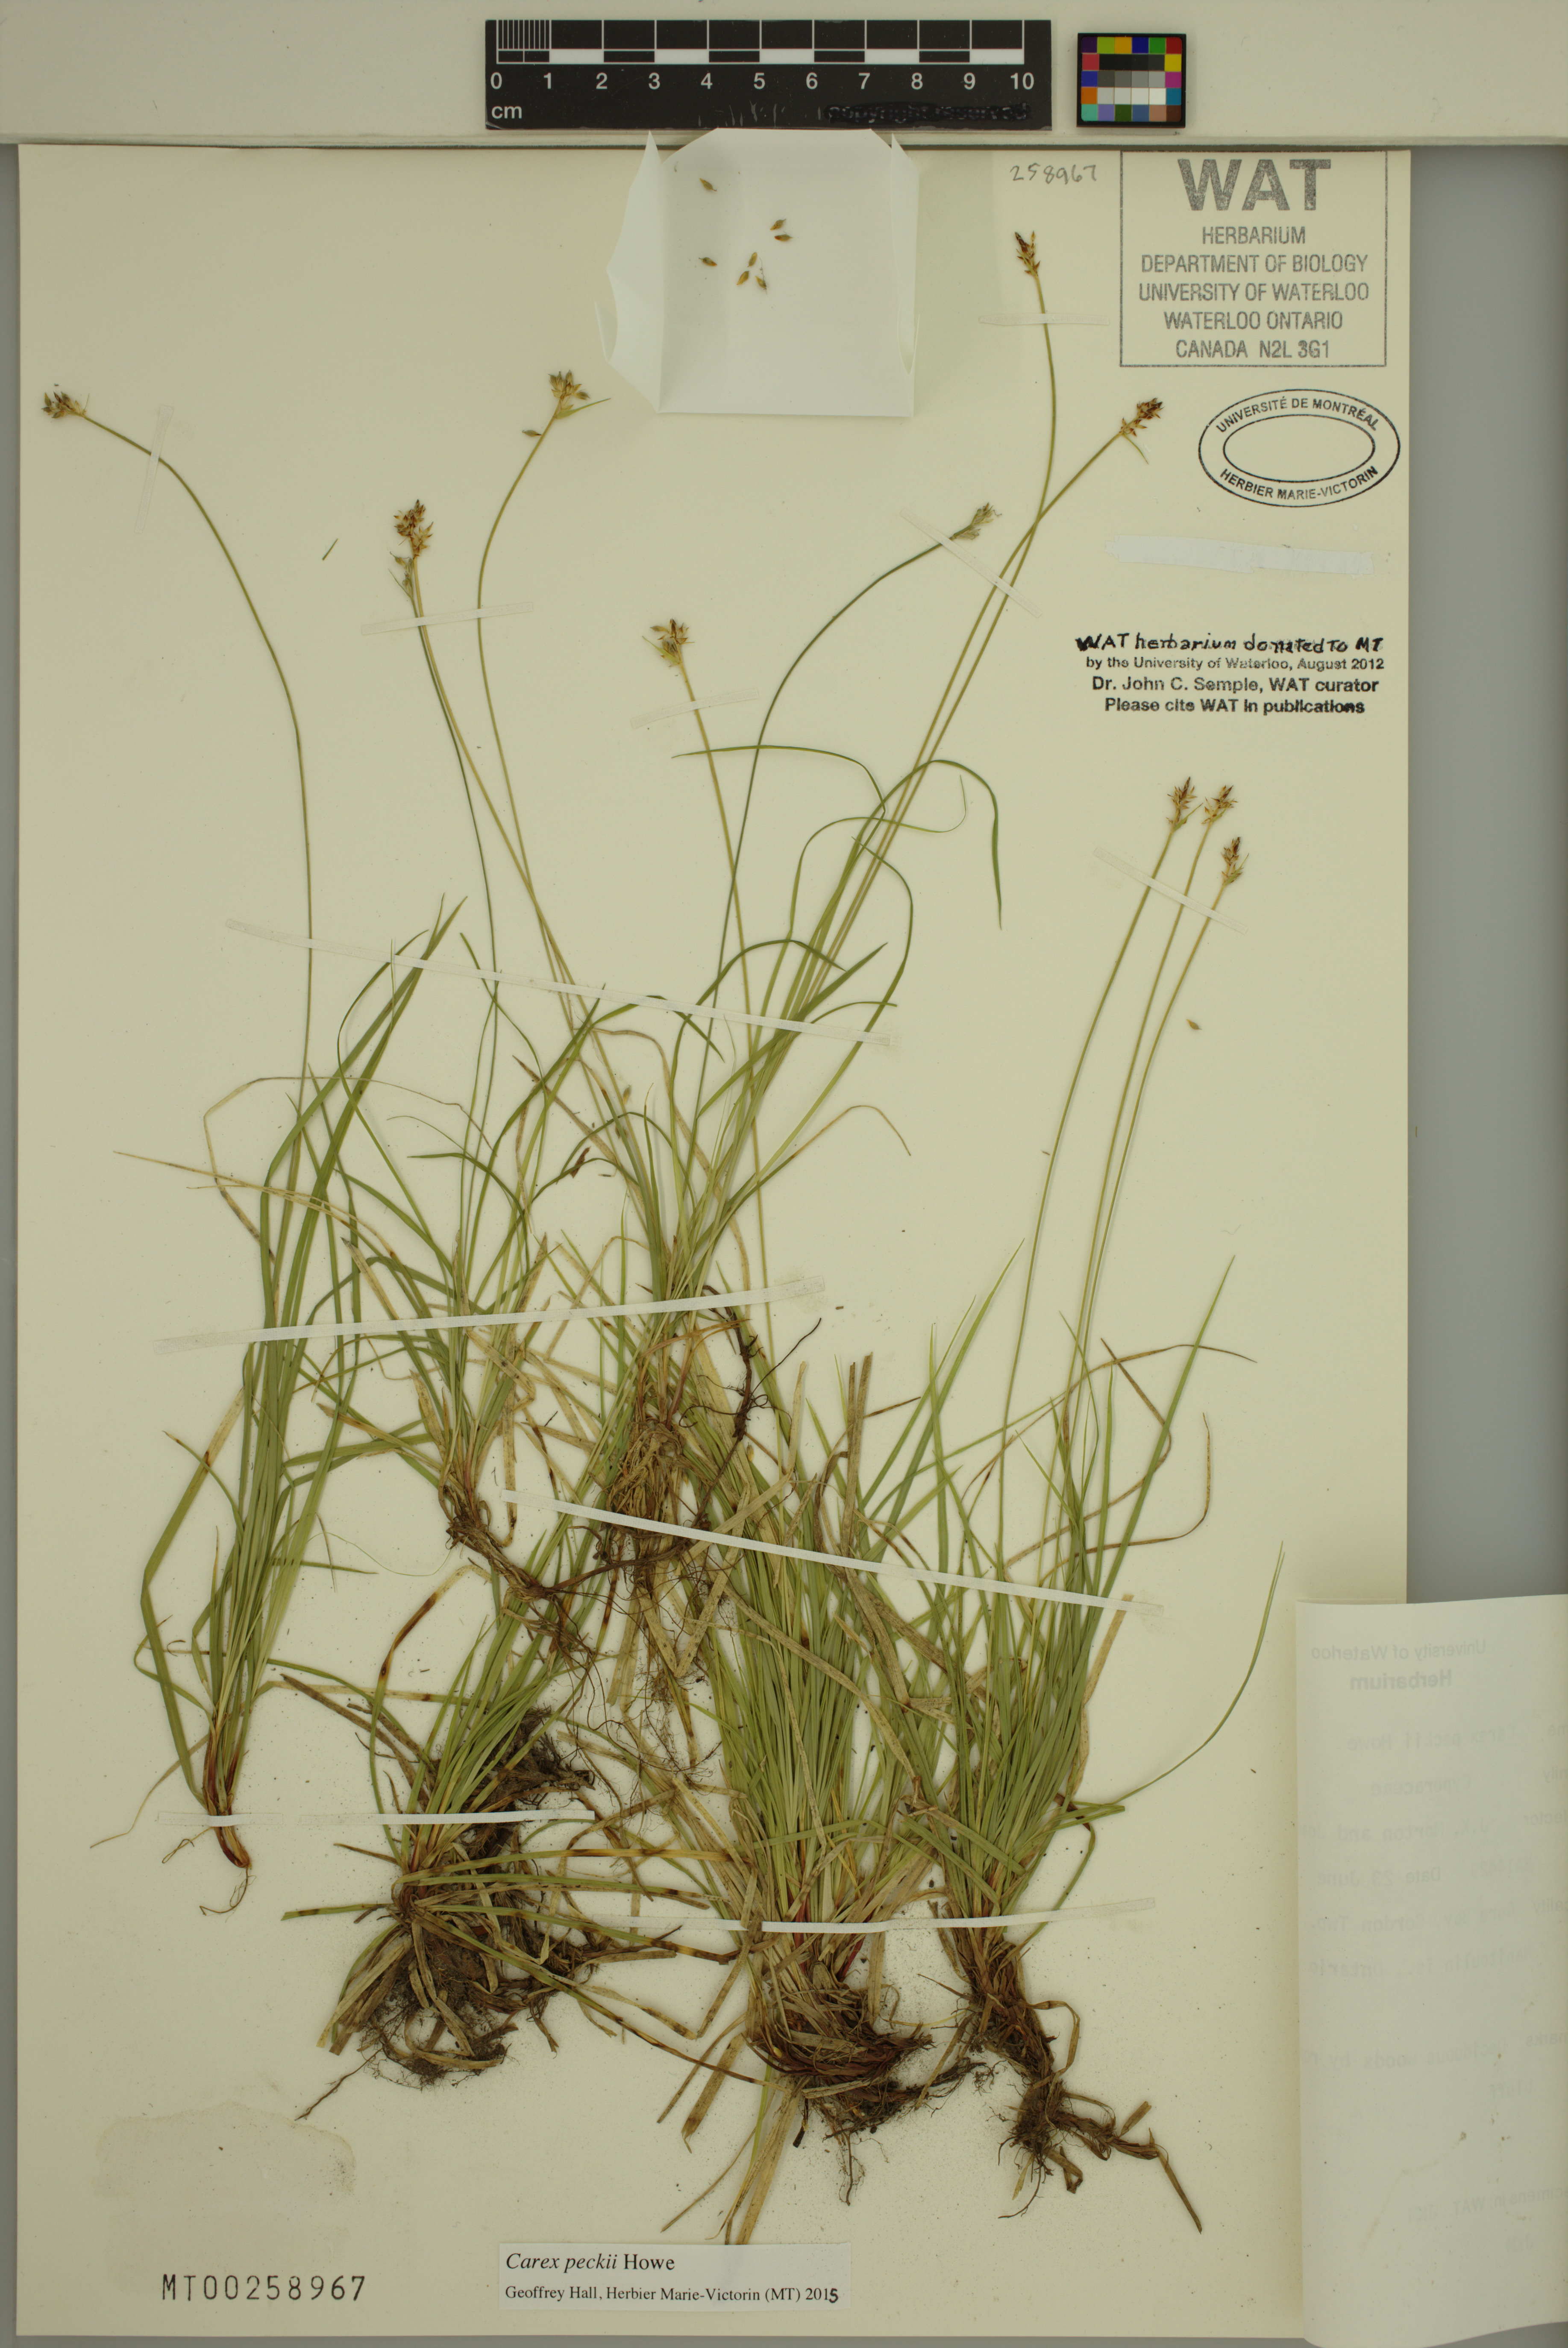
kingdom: Plantae
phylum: Tracheophyta
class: Liliopsida
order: Poales
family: Cyperaceae
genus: Carex
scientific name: Carex peckii
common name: Peck's oak sedge
